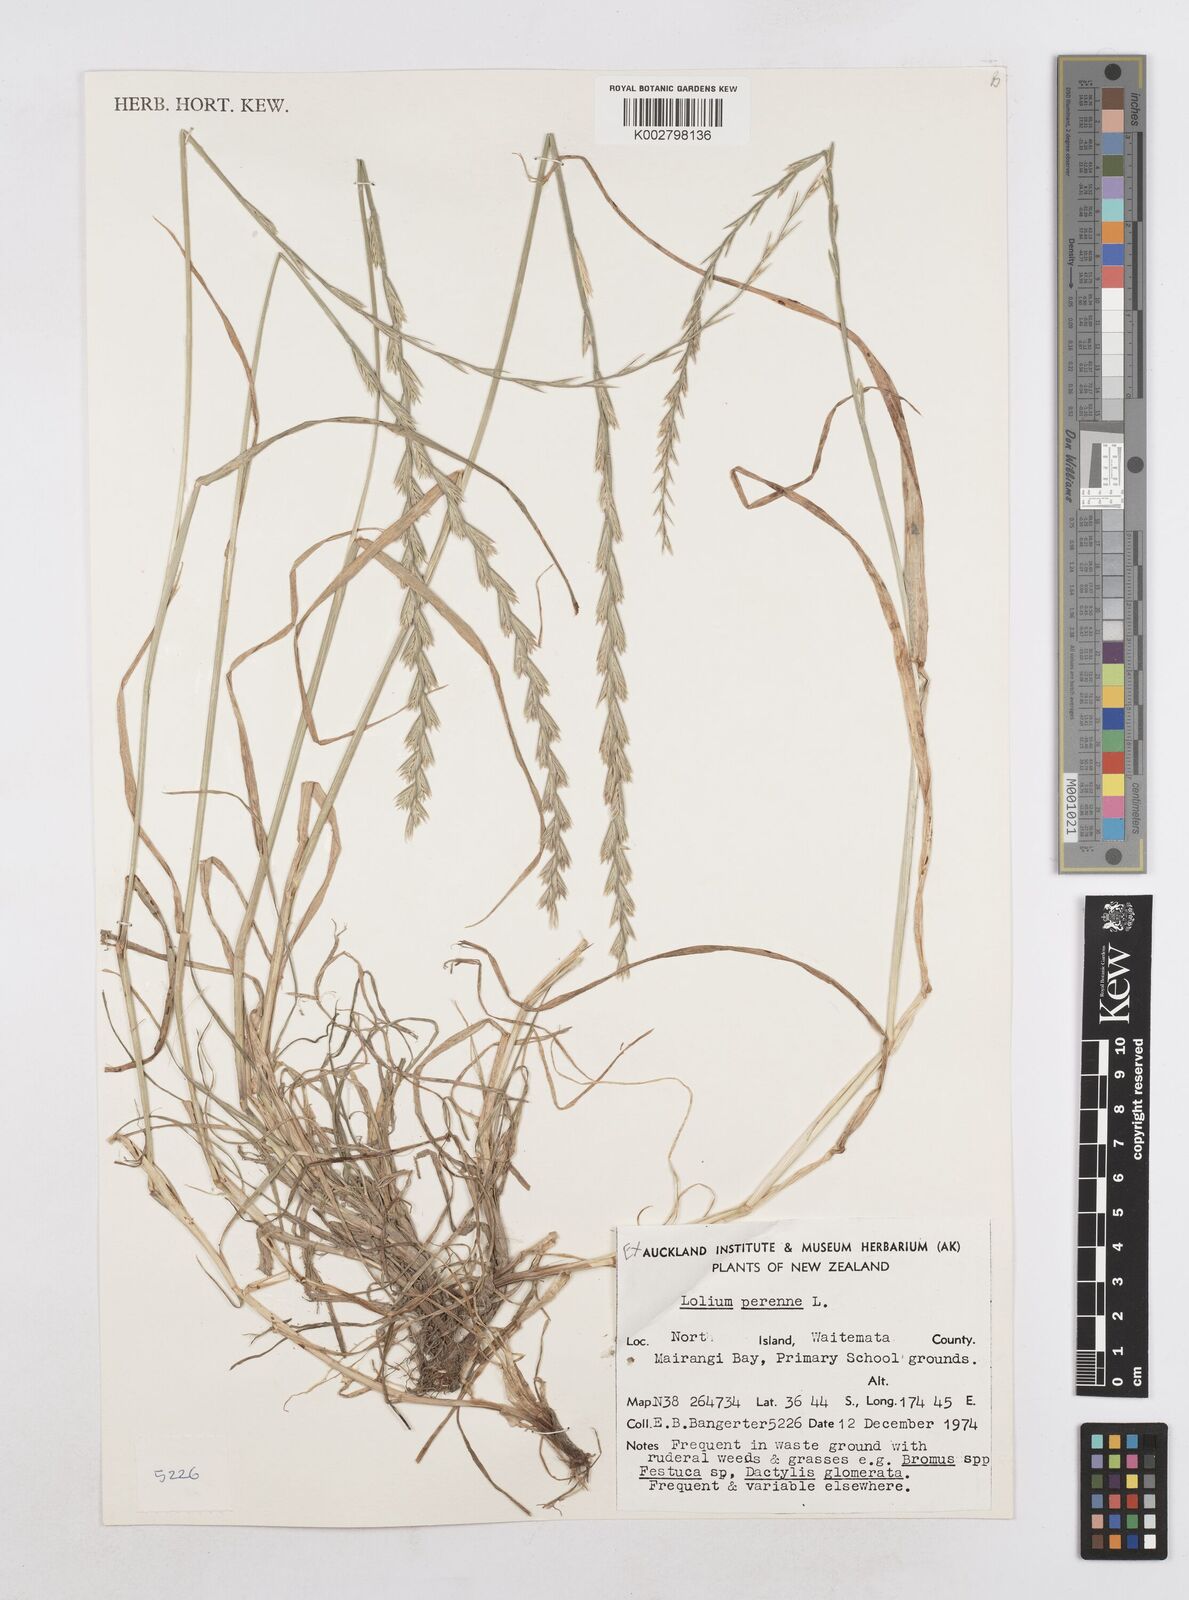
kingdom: Plantae
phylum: Tracheophyta
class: Liliopsida
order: Poales
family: Poaceae
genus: Lolium
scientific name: Lolium perenne
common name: Perennial ryegrass
